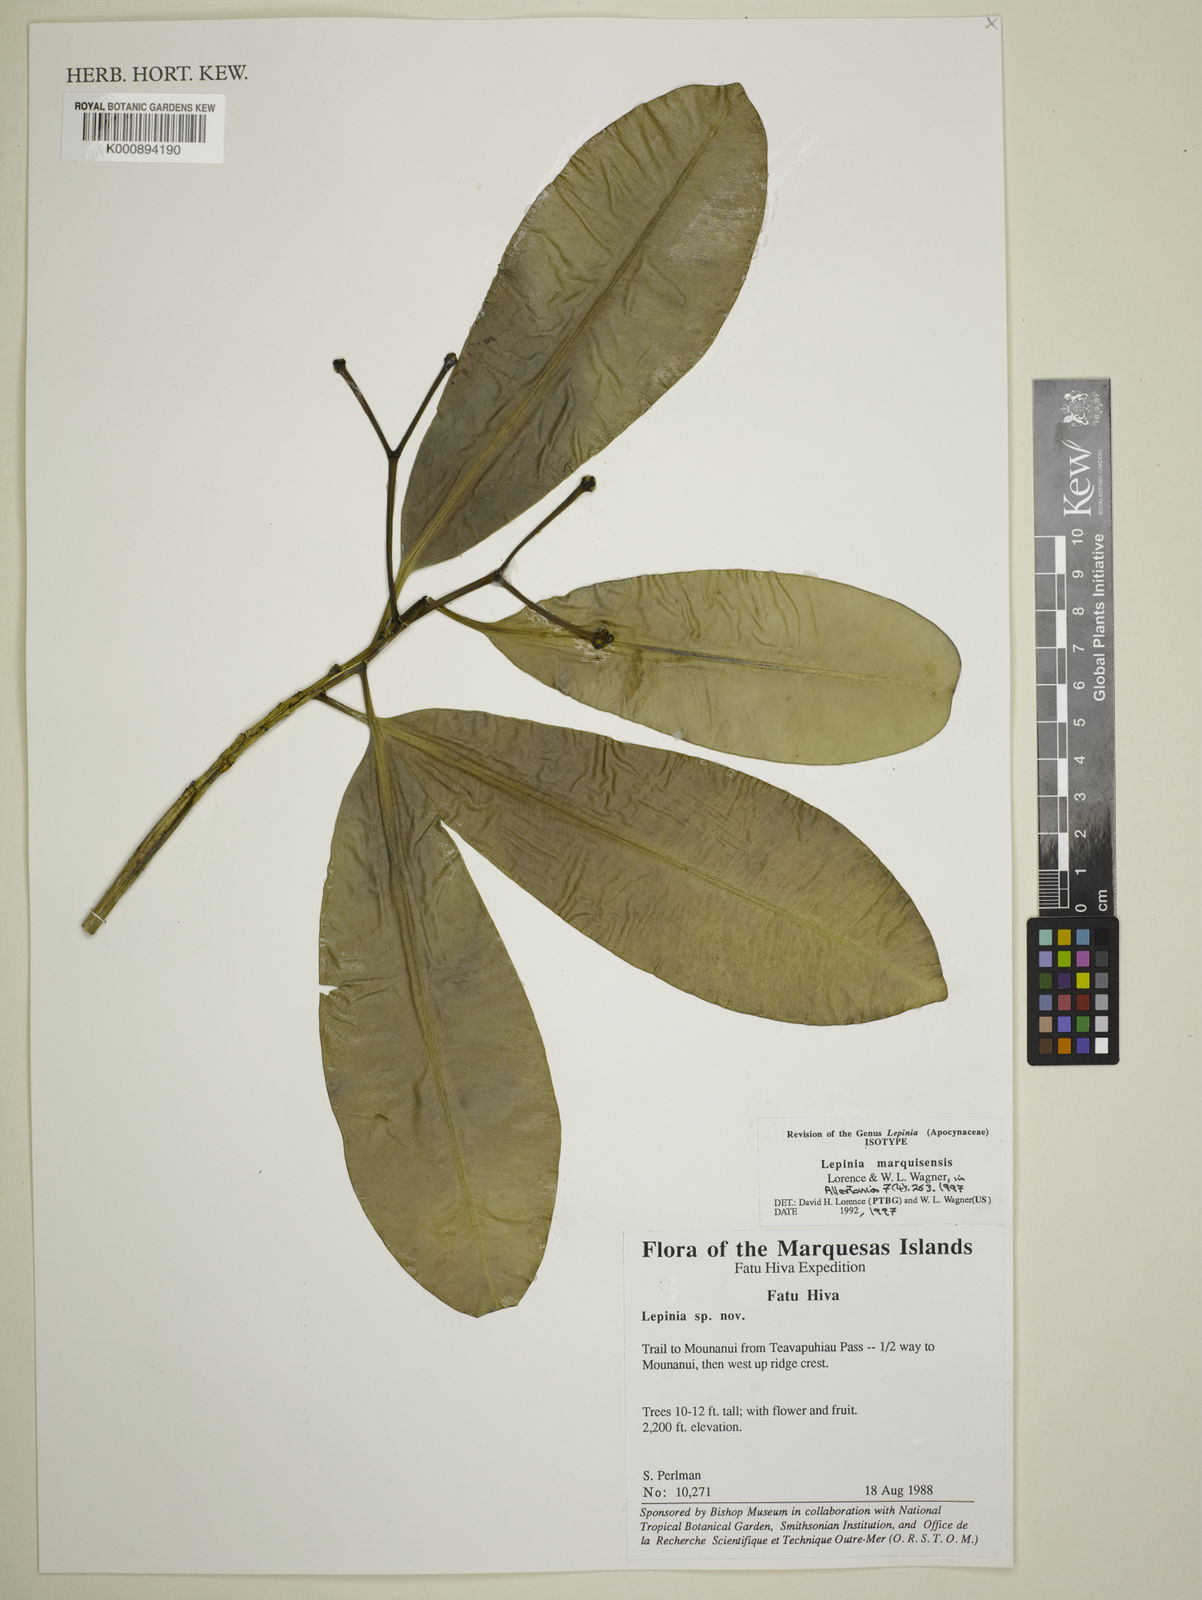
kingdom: Plantae
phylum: Tracheophyta
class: Magnoliopsida
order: Gentianales
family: Apocynaceae
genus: Lepinia
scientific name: Lepinia marquisensis
